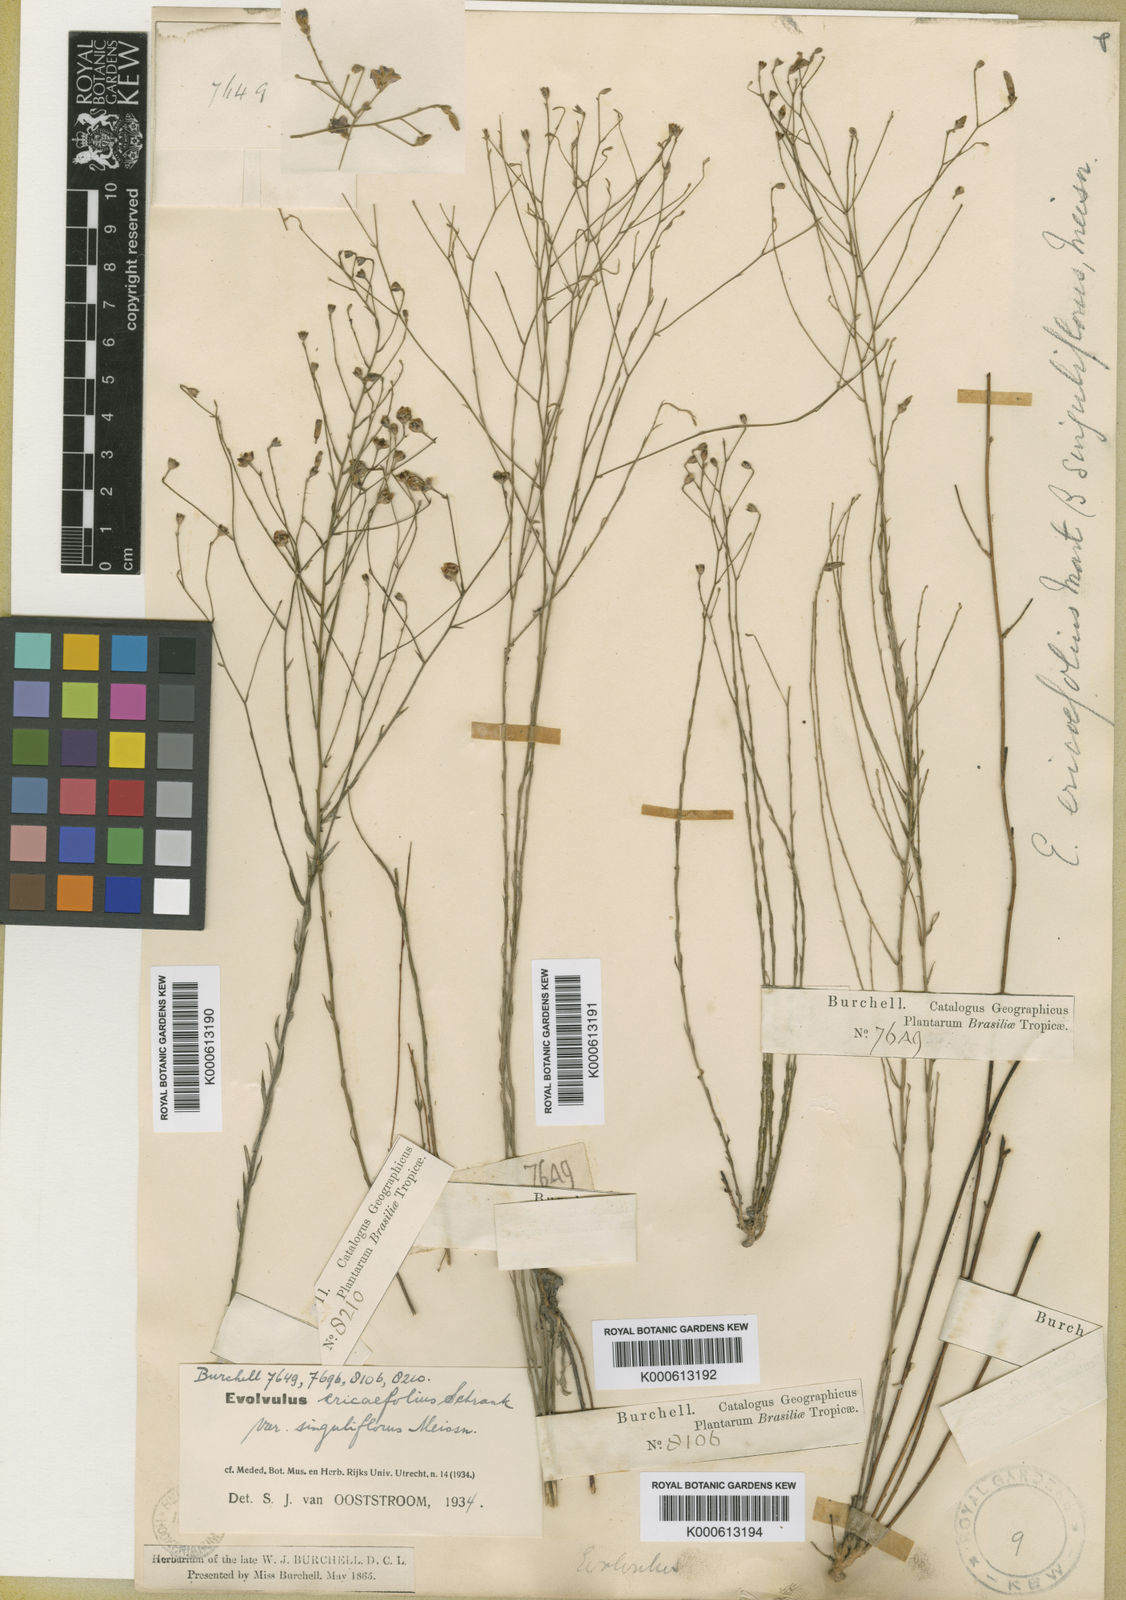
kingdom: Plantae
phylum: Tracheophyta
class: Magnoliopsida
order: Solanales
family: Convolvulaceae
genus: Evolvulus
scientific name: Evolvulus ericifolius
